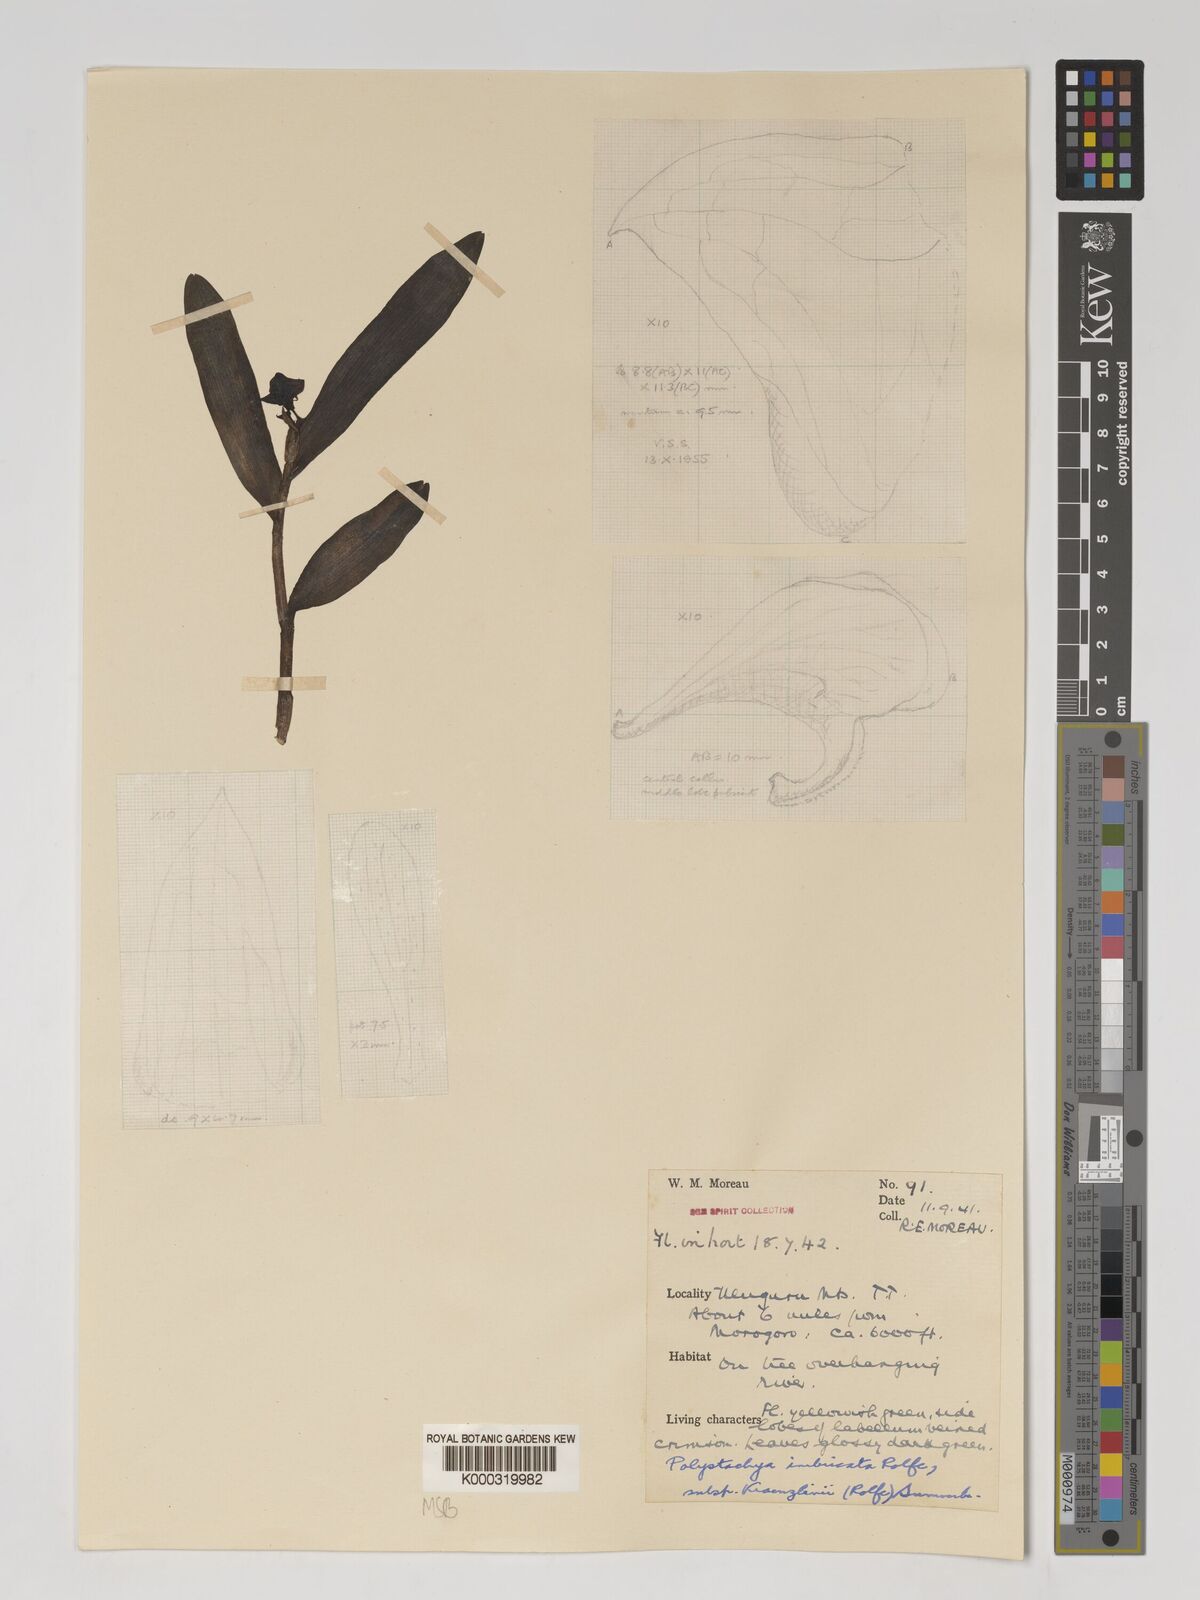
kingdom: Plantae
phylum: Tracheophyta
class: Liliopsida
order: Asparagales
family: Orchidaceae
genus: Polystachya
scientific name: Polystachya albescens
